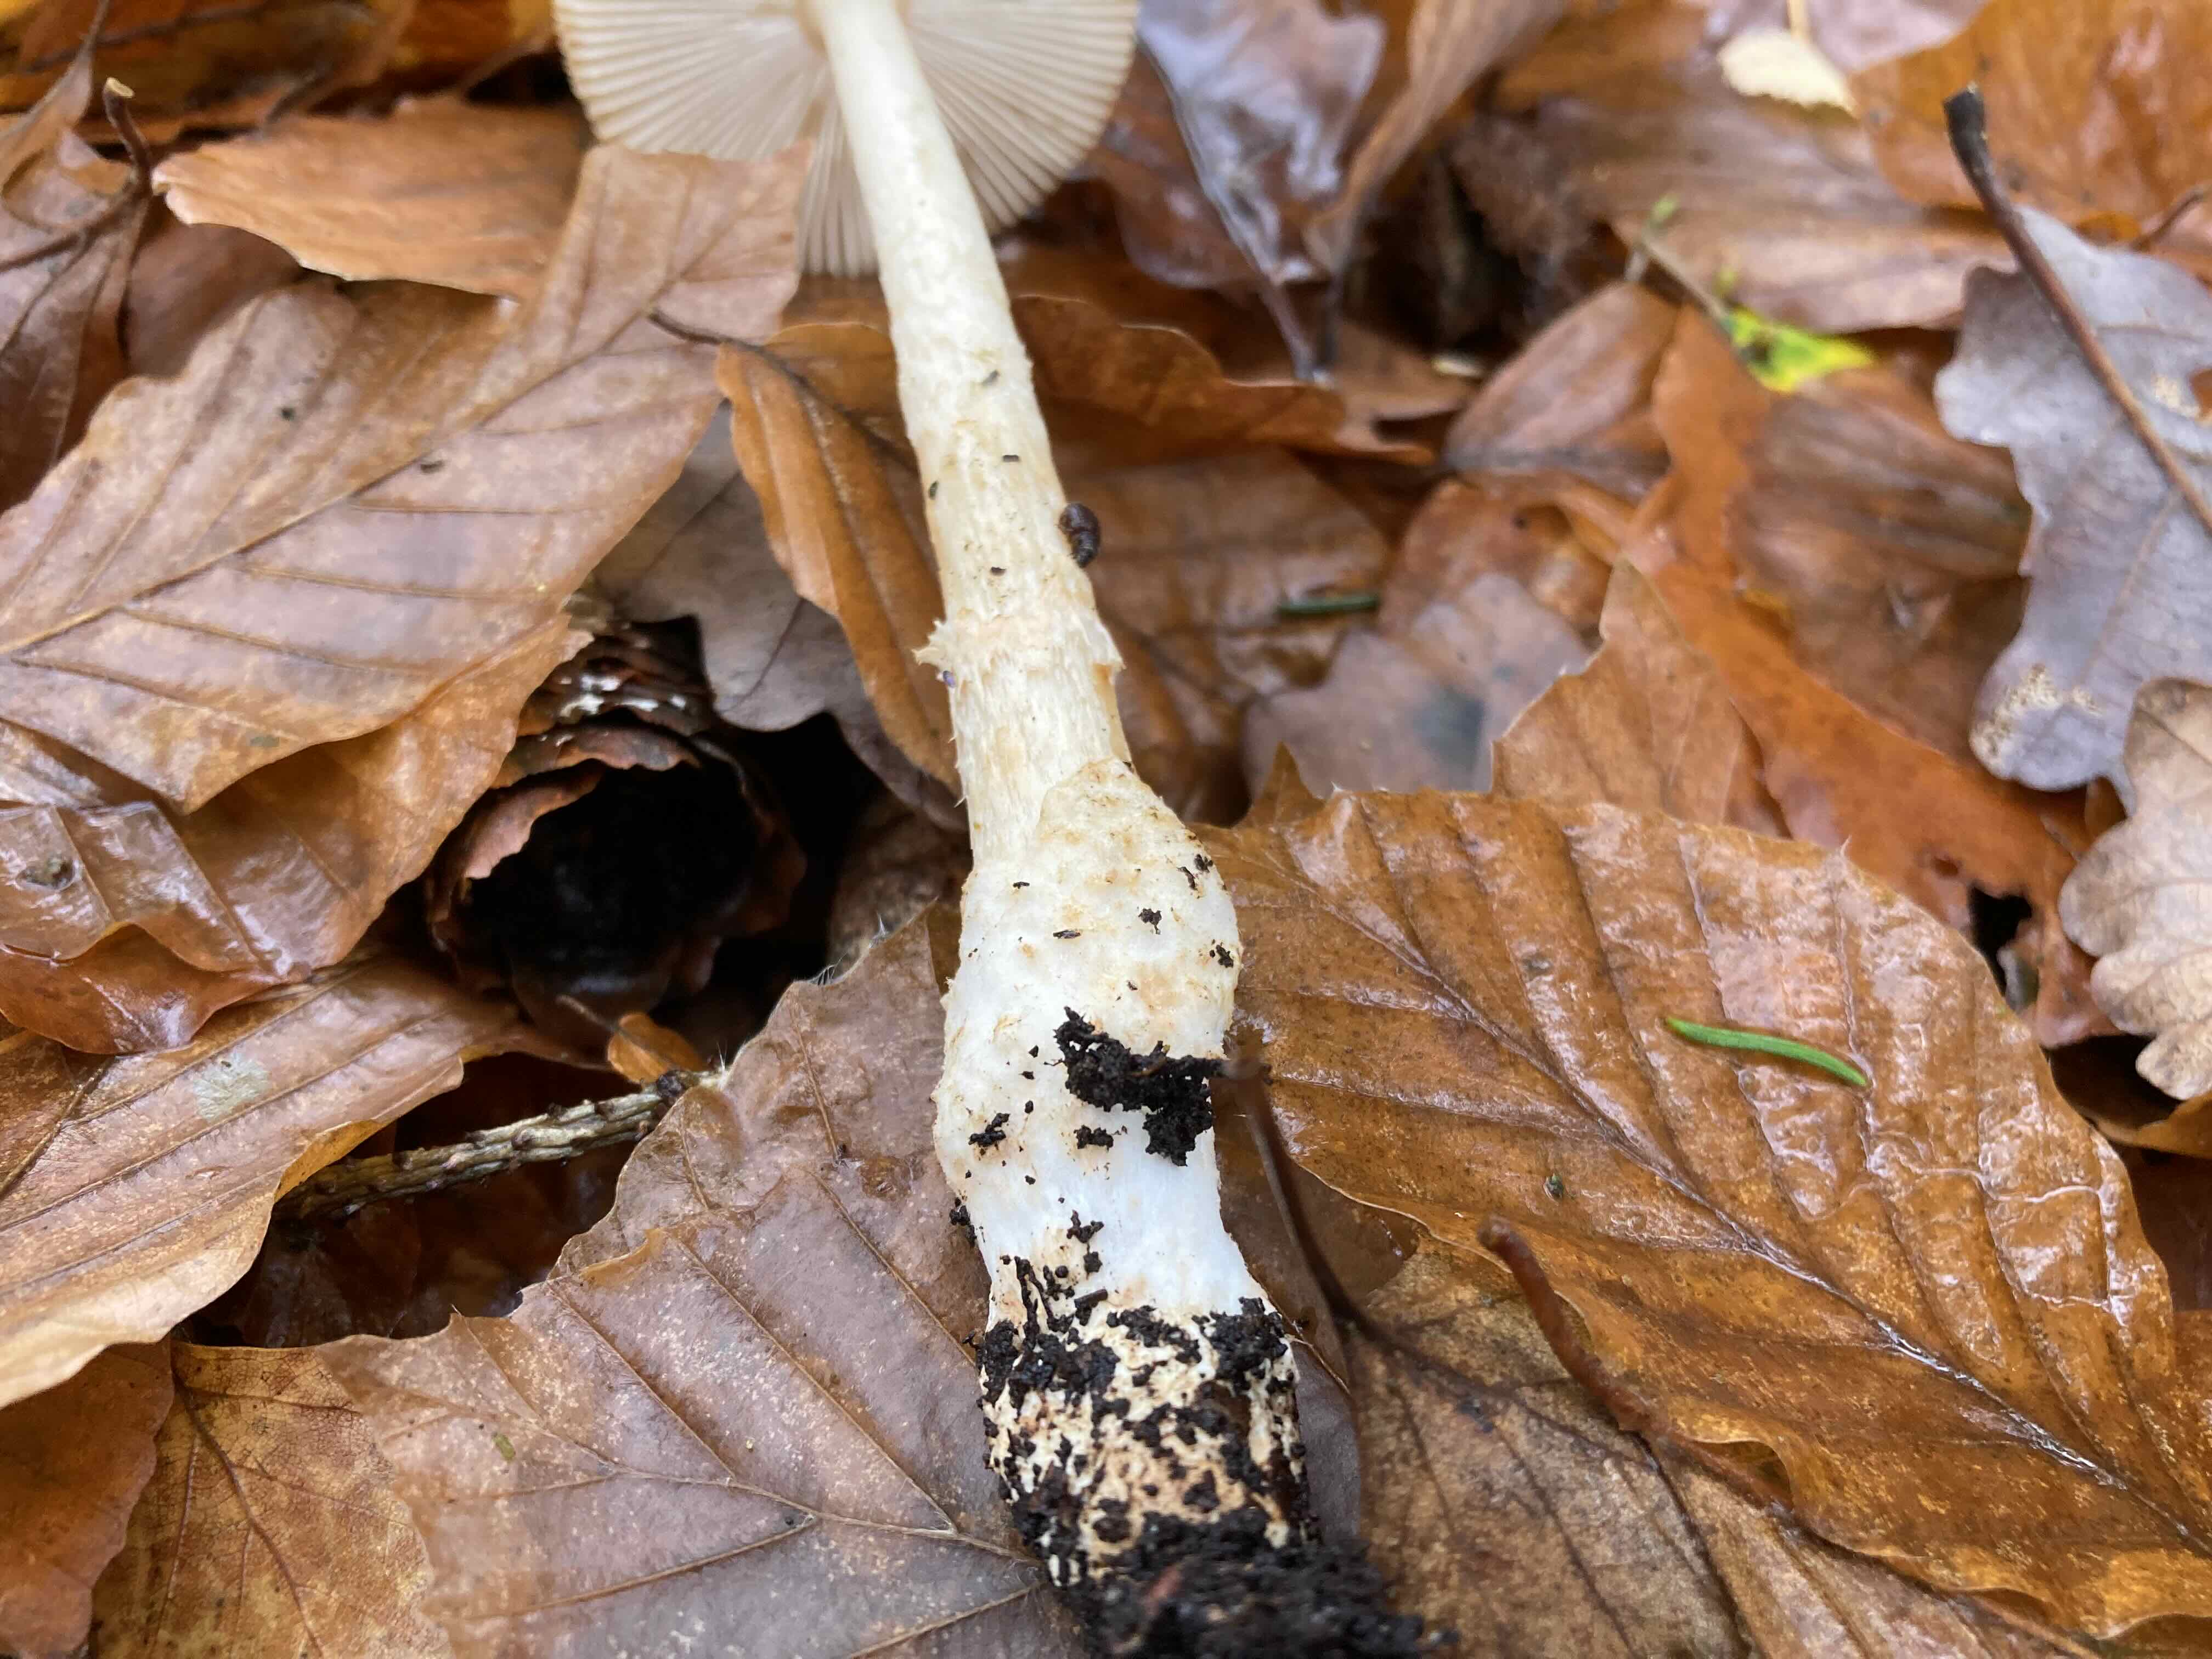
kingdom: Fungi
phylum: Basidiomycota
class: Agaricomycetes
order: Agaricales
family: Amanitaceae
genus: Amanita
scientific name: Amanita fulva
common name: brun kam-fluesvamp
